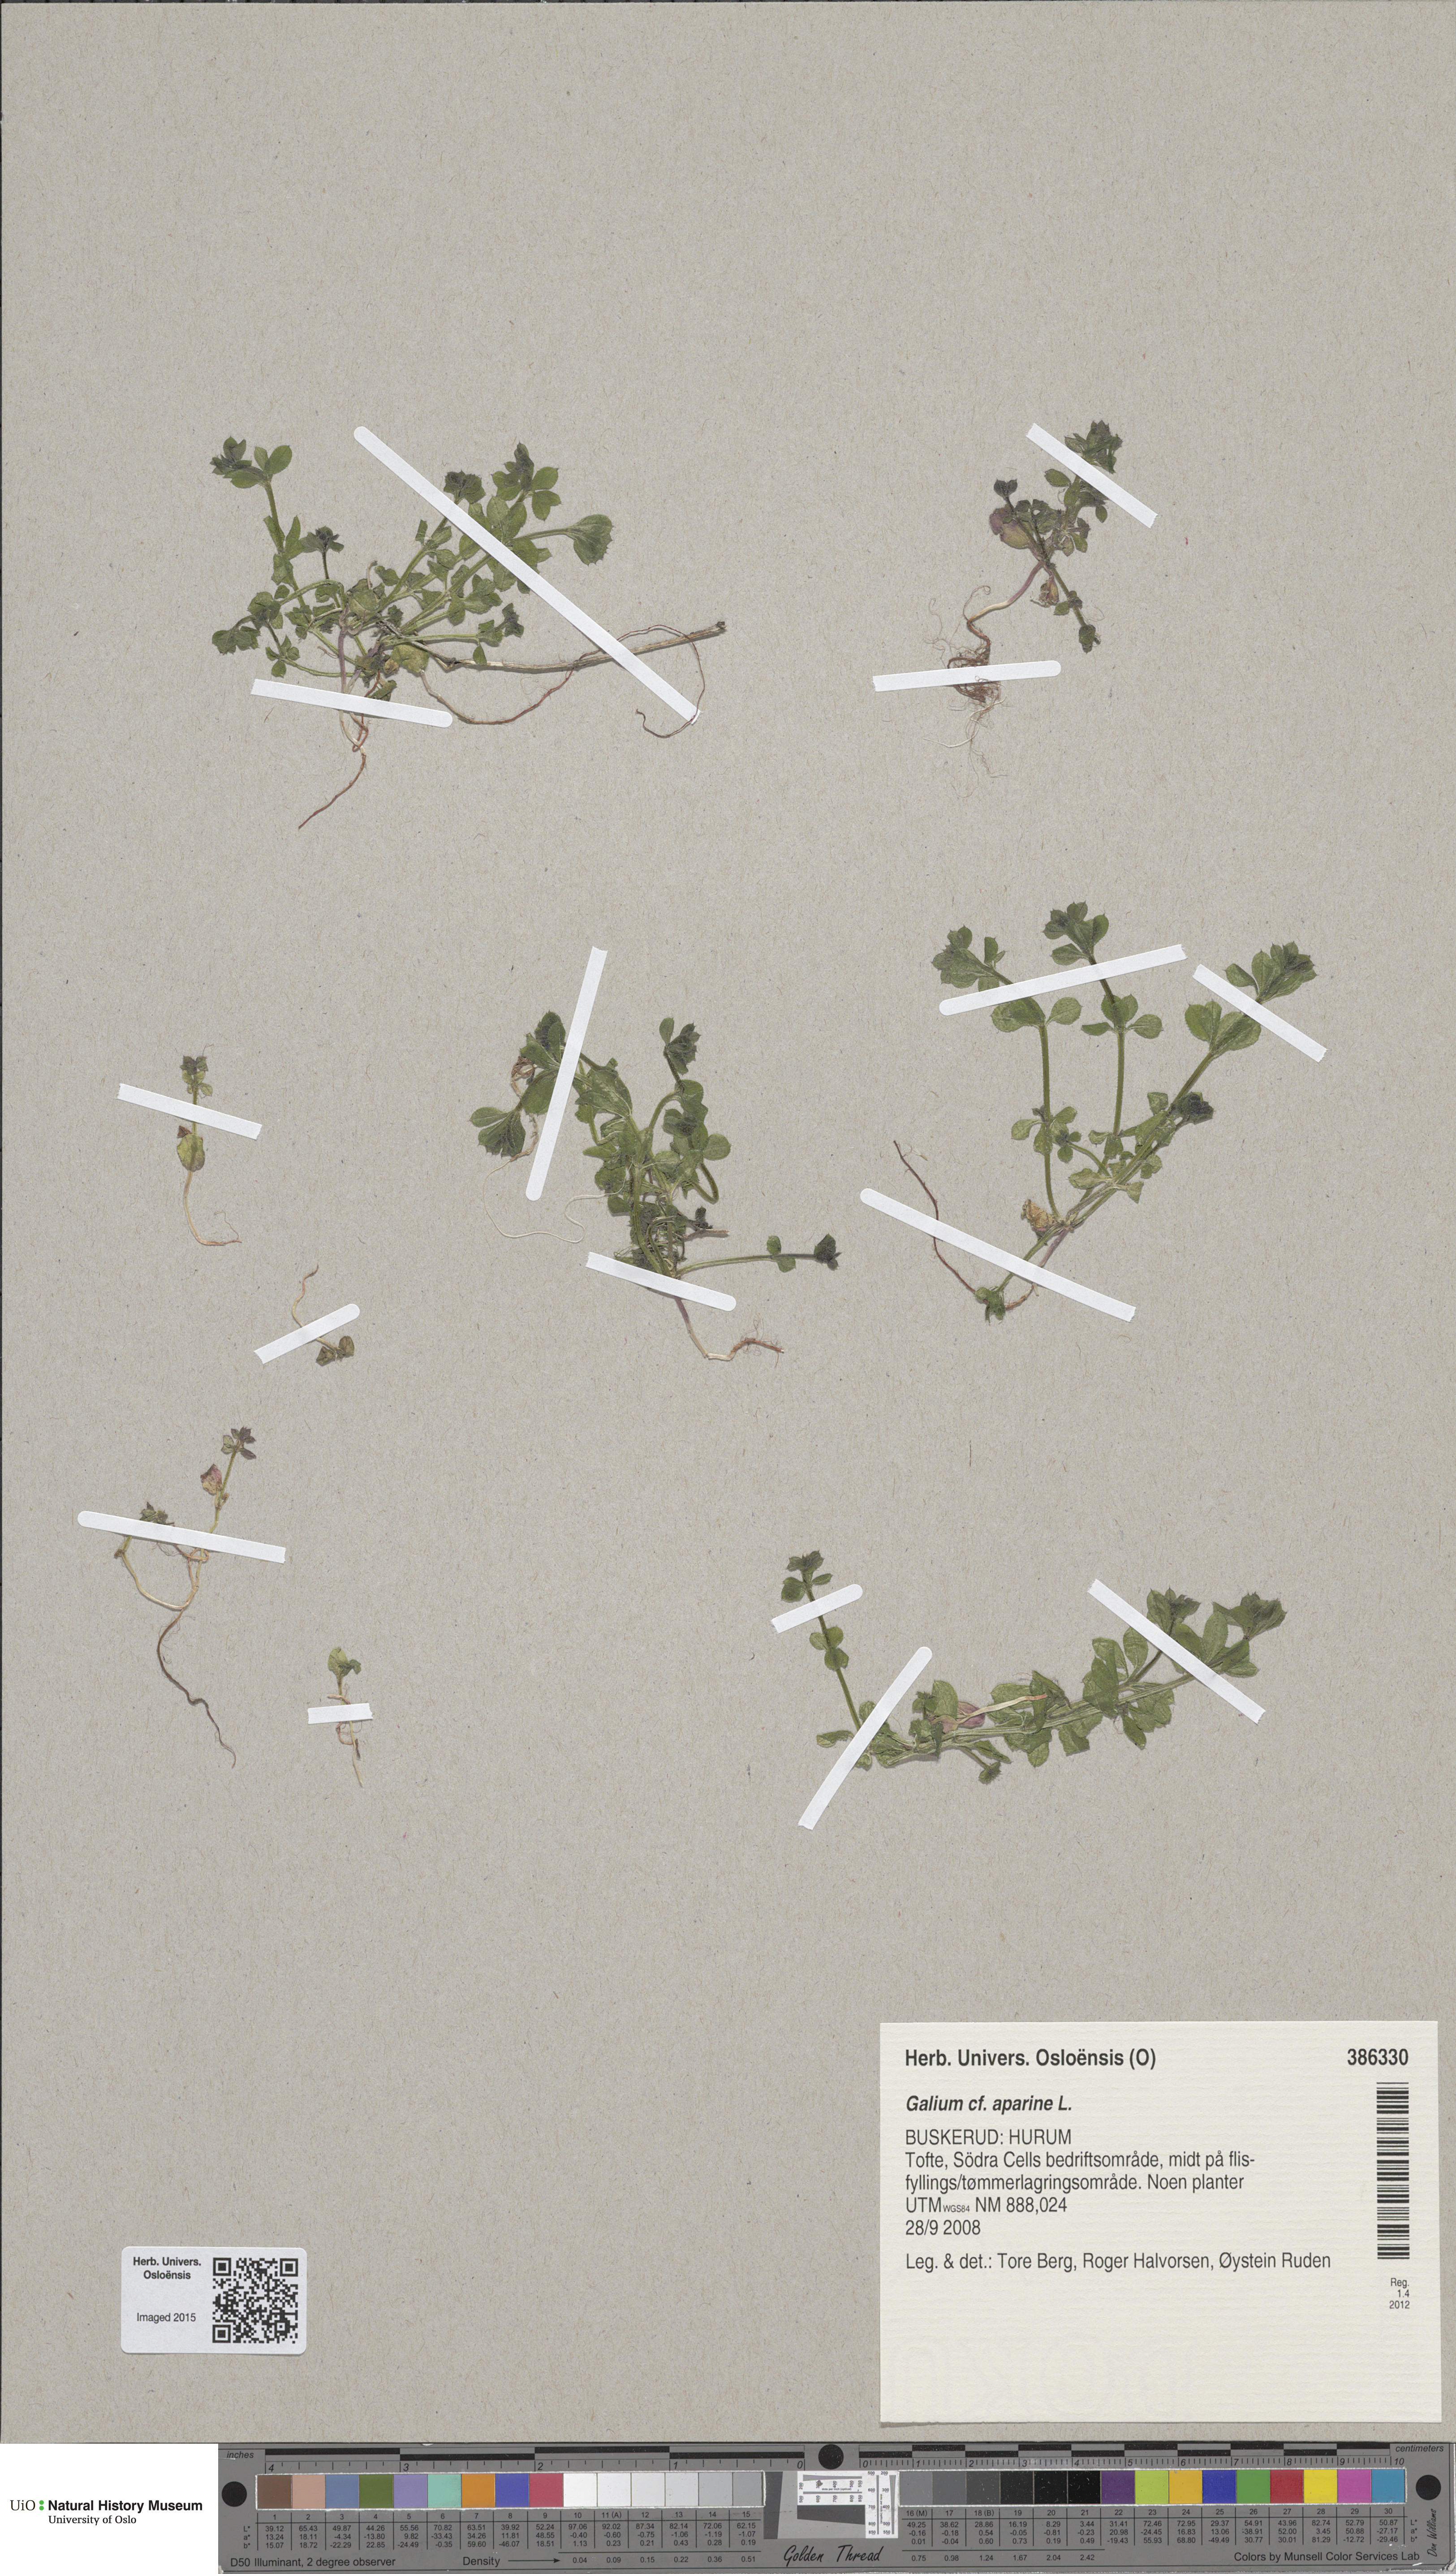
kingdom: Plantae
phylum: Tracheophyta
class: Magnoliopsida
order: Gentianales
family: Rubiaceae
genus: Galium
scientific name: Galium aparine
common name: Cleavers
